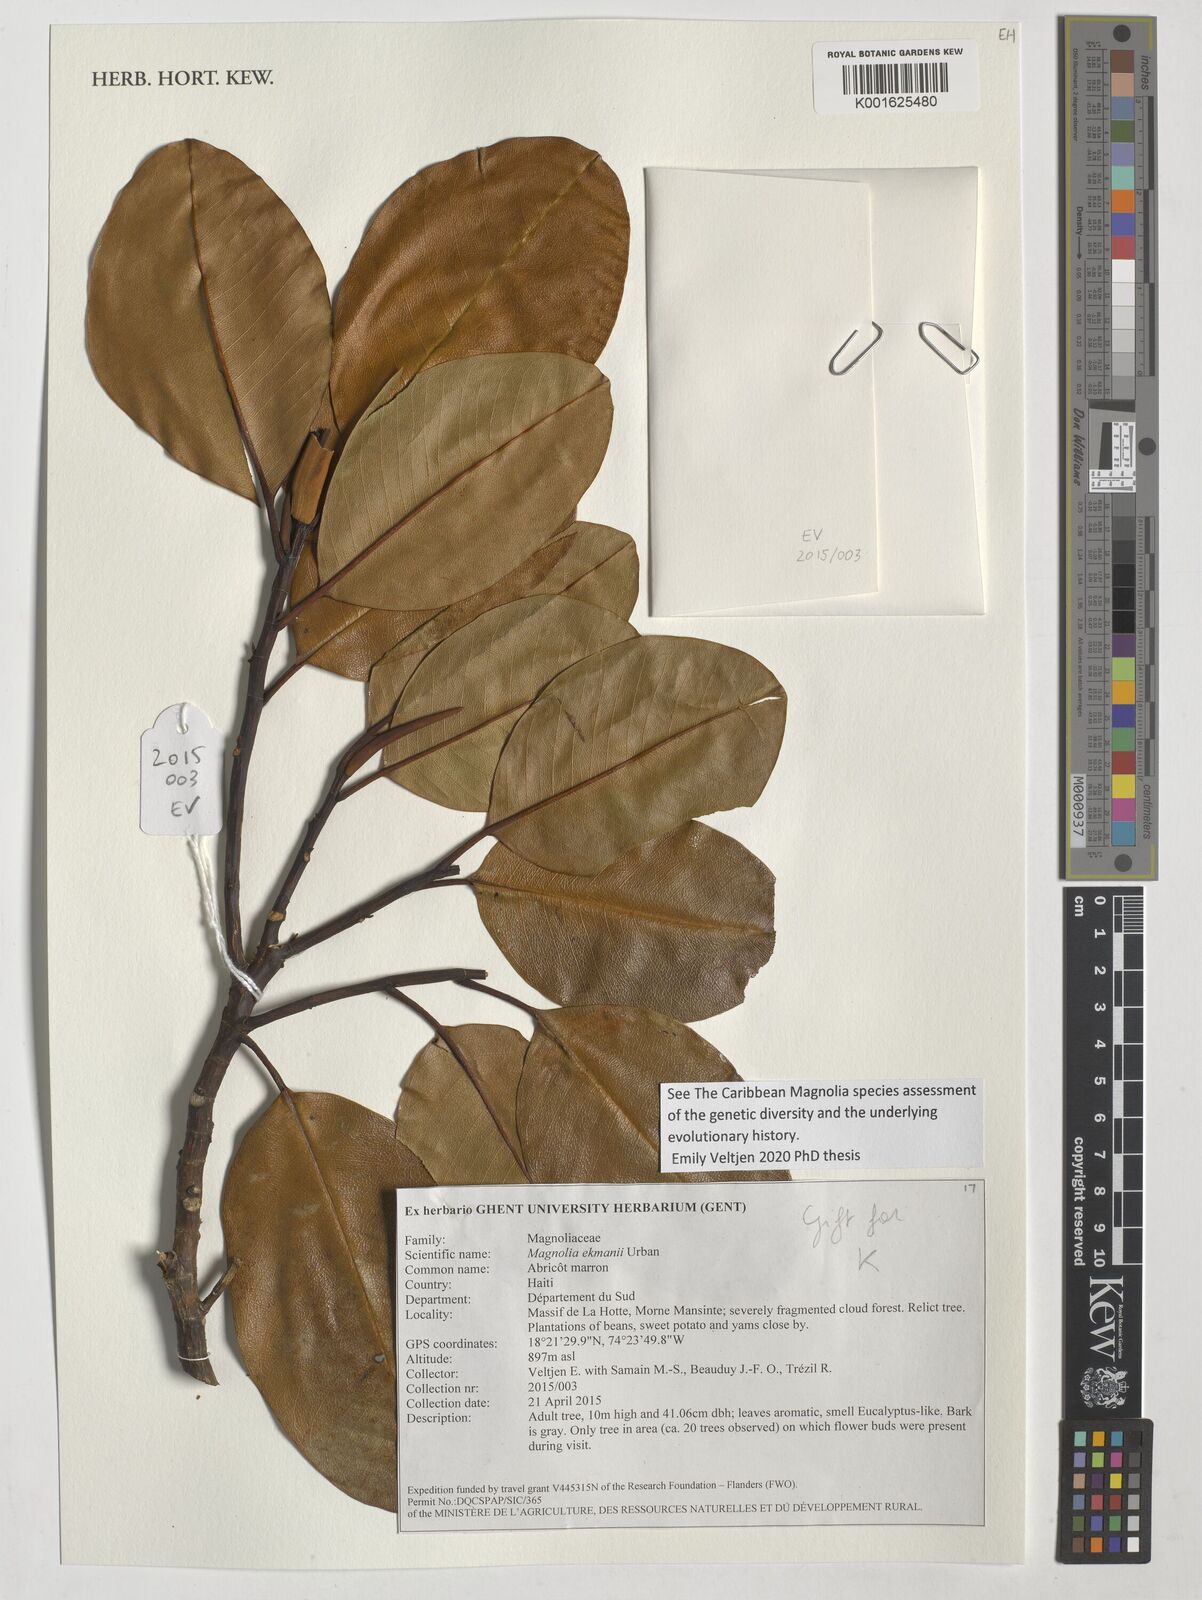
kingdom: Plantae
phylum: Tracheophyta
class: Magnoliopsida
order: Magnoliales
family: Magnoliaceae
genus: Magnolia
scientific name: Magnolia ekmanii
